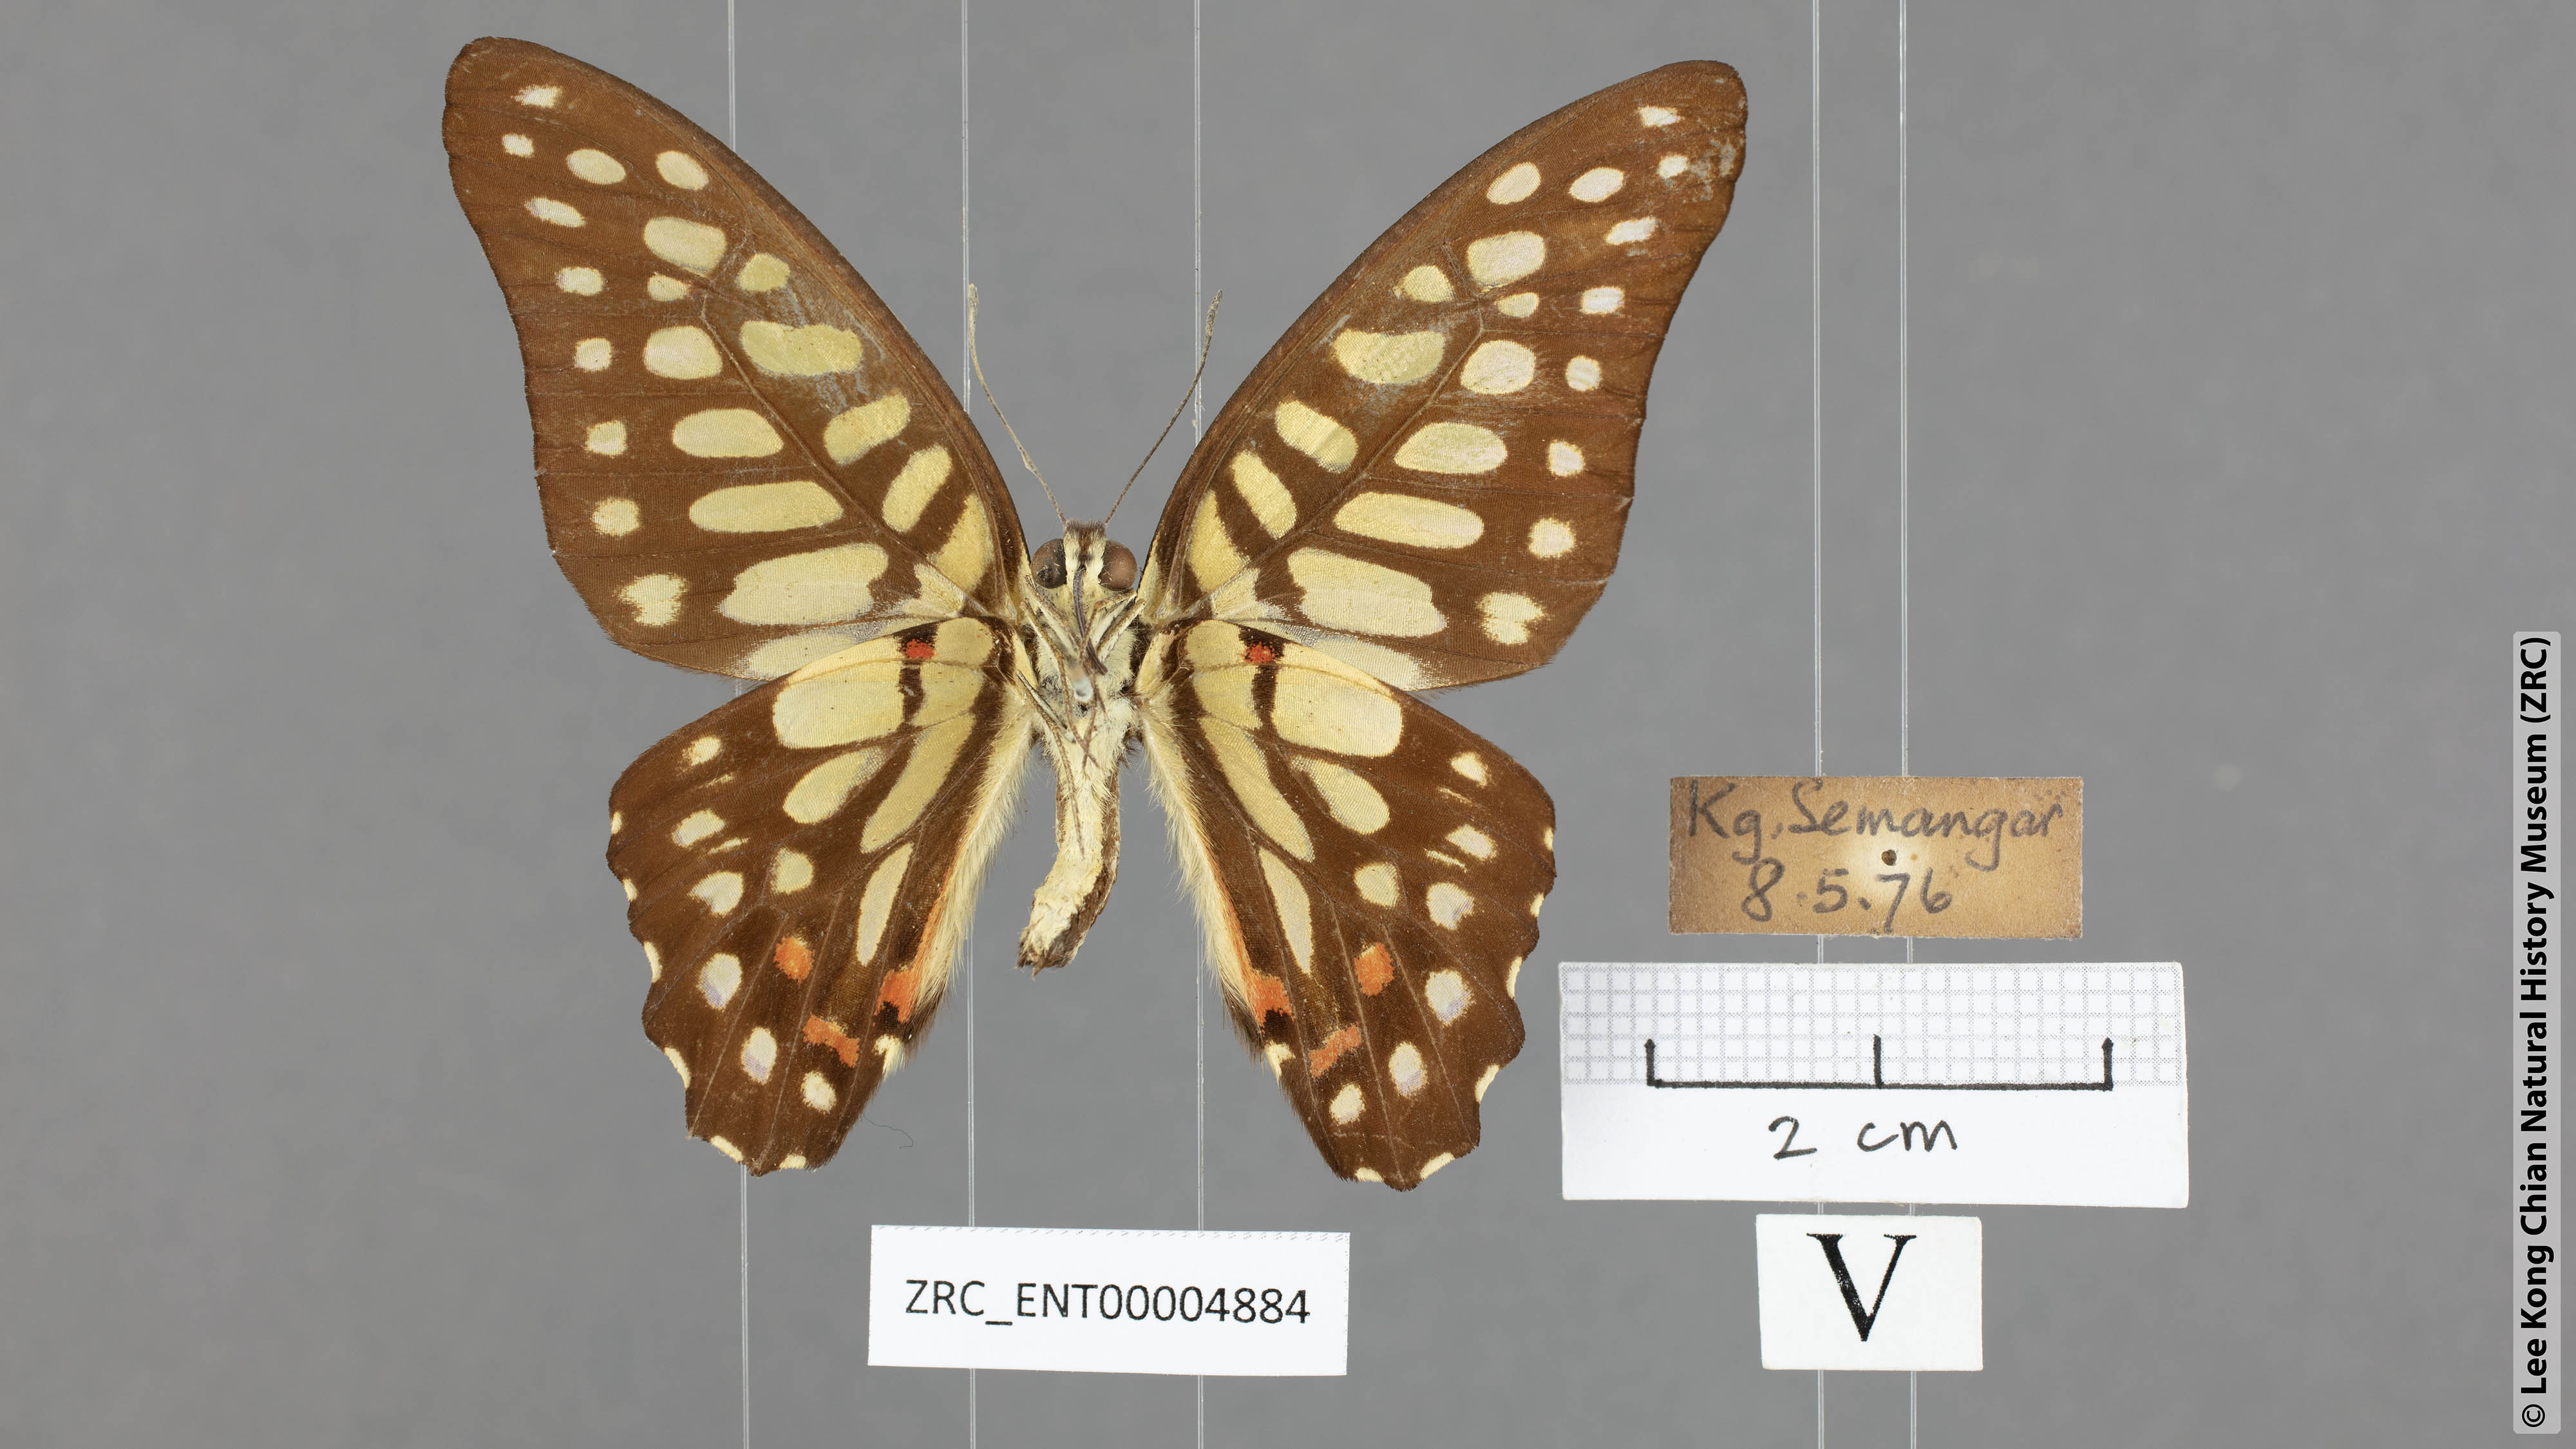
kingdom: Animalia
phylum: Arthropoda
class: Insecta
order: Lepidoptera
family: Papilionidae
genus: Graphium
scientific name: Graphium arycles
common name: Spotted jay
